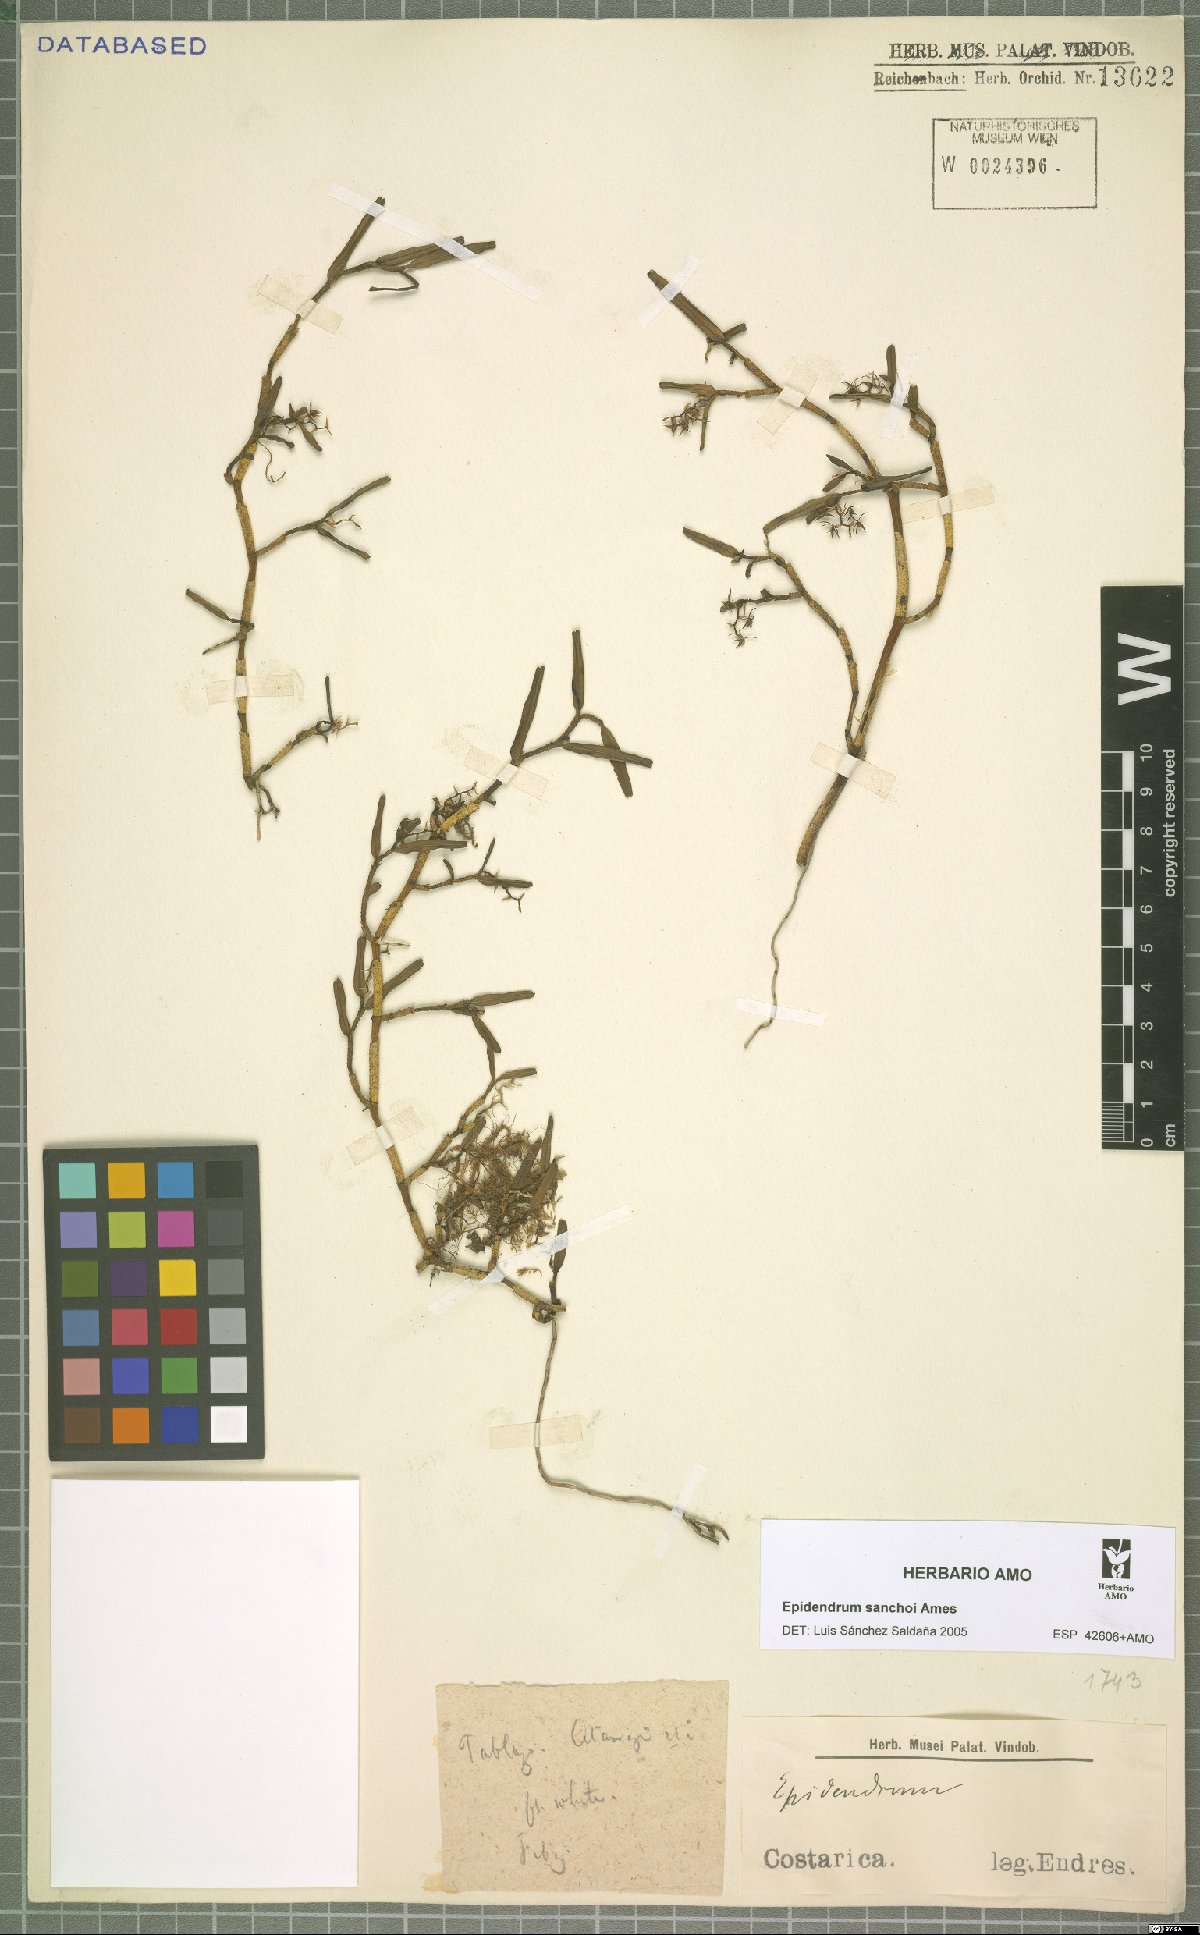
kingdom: Plantae
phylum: Tracheophyta
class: Liliopsida
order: Asparagales
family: Orchidaceae
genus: Epidendrum
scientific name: Epidendrum sanchoi
